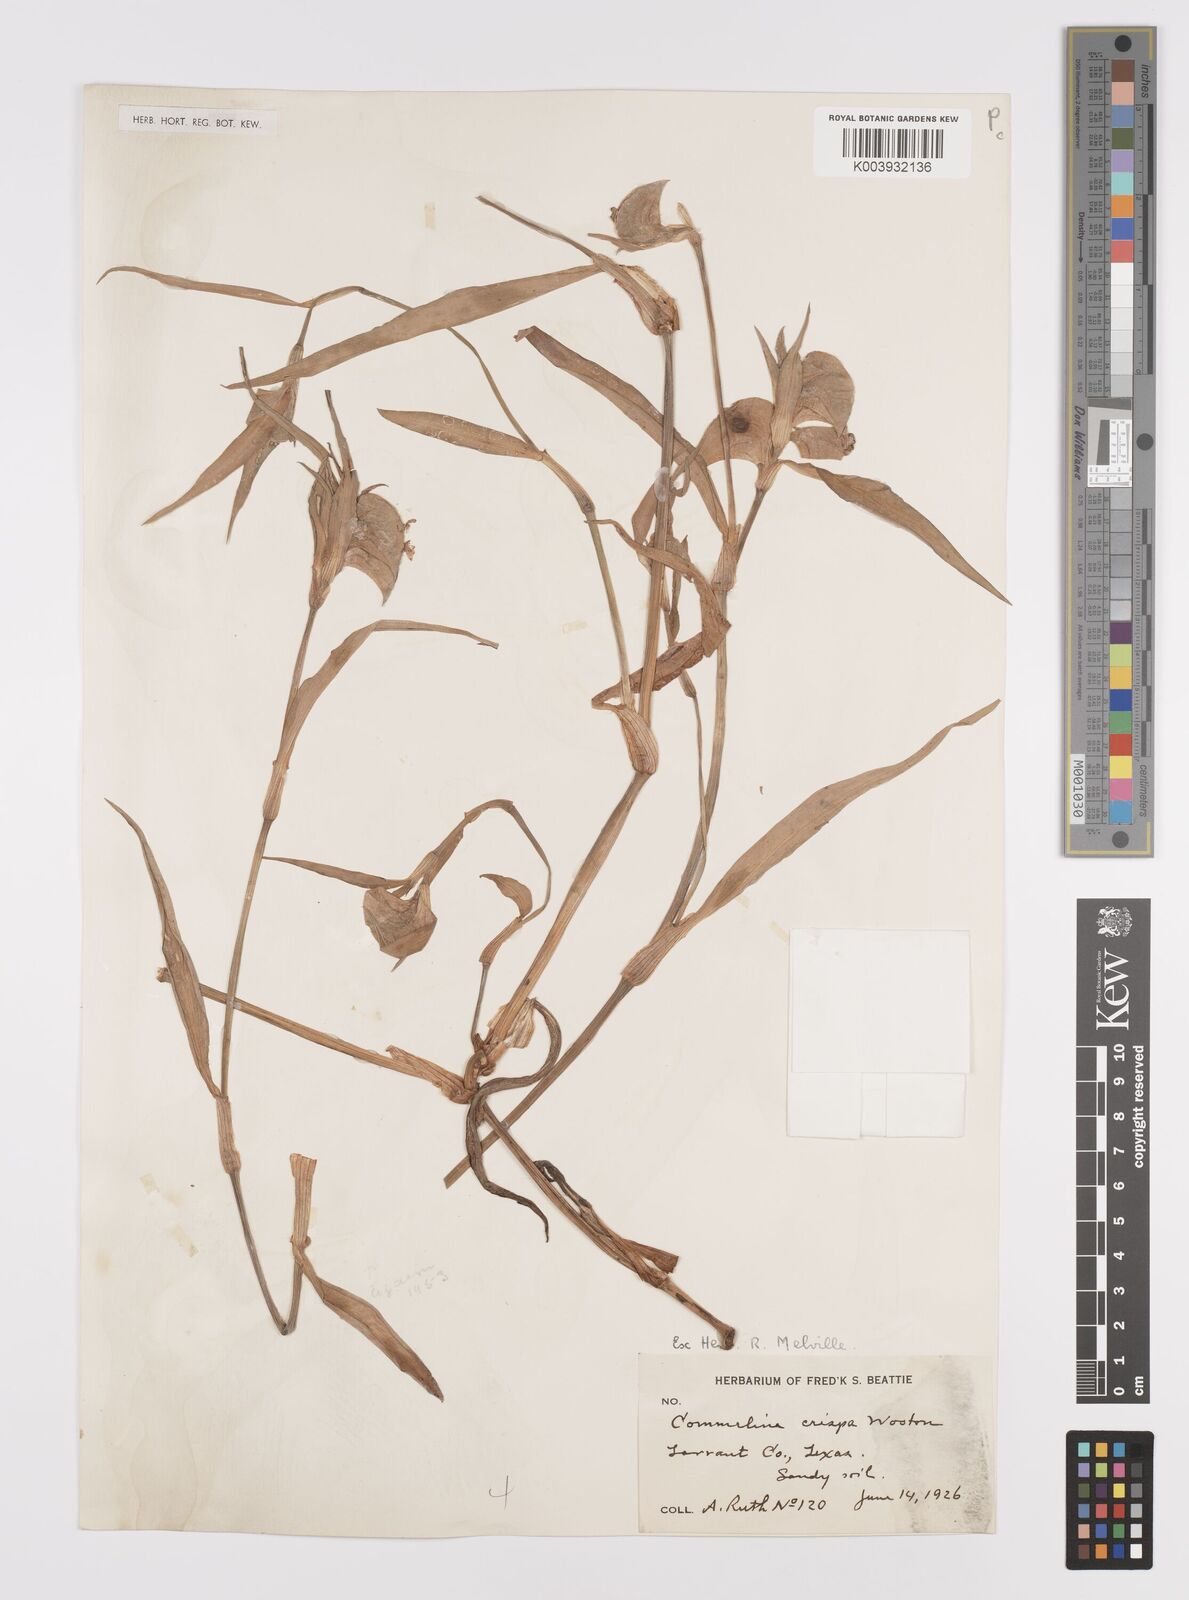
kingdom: Plantae
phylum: Tracheophyta
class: Liliopsida
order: Commelinales
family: Commelinaceae
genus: Commelina
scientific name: Commelina erecta
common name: Blousel blommetjie
